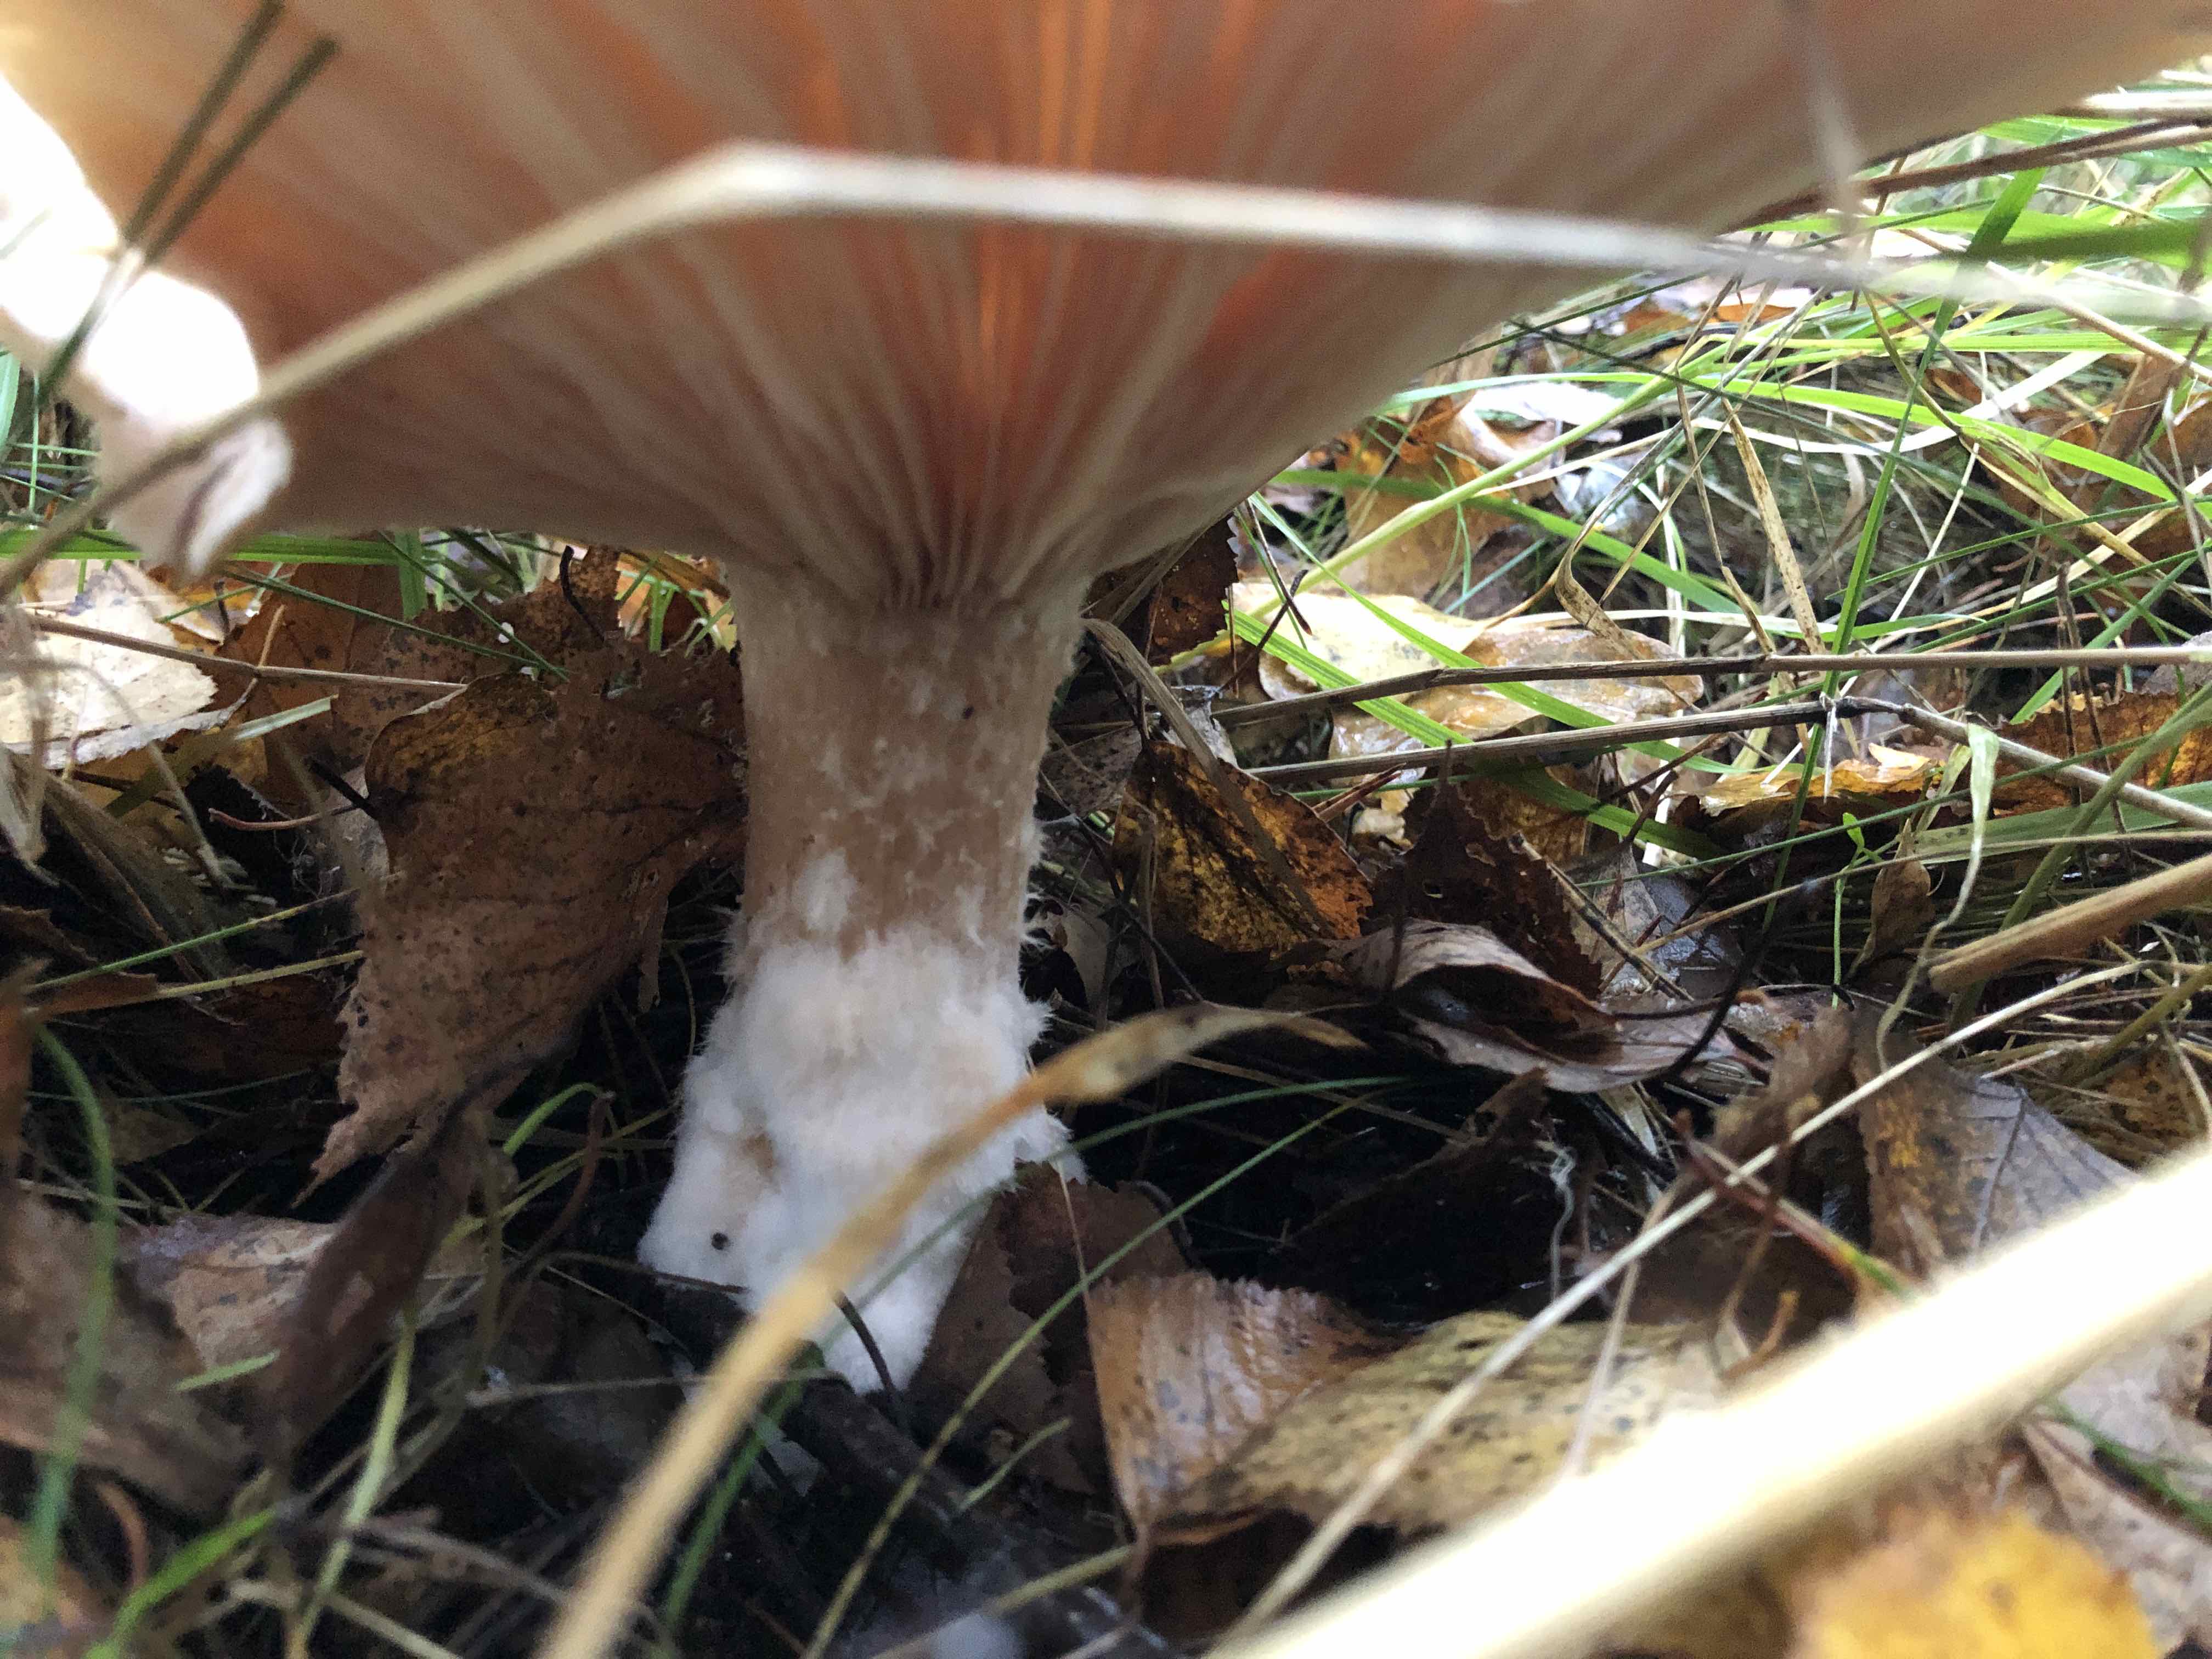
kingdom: Fungi
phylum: Basidiomycota
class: Agaricomycetes
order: Agaricales
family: Tricholomataceae
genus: Infundibulicybe
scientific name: Infundibulicybe geotropa
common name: stor tragthat
